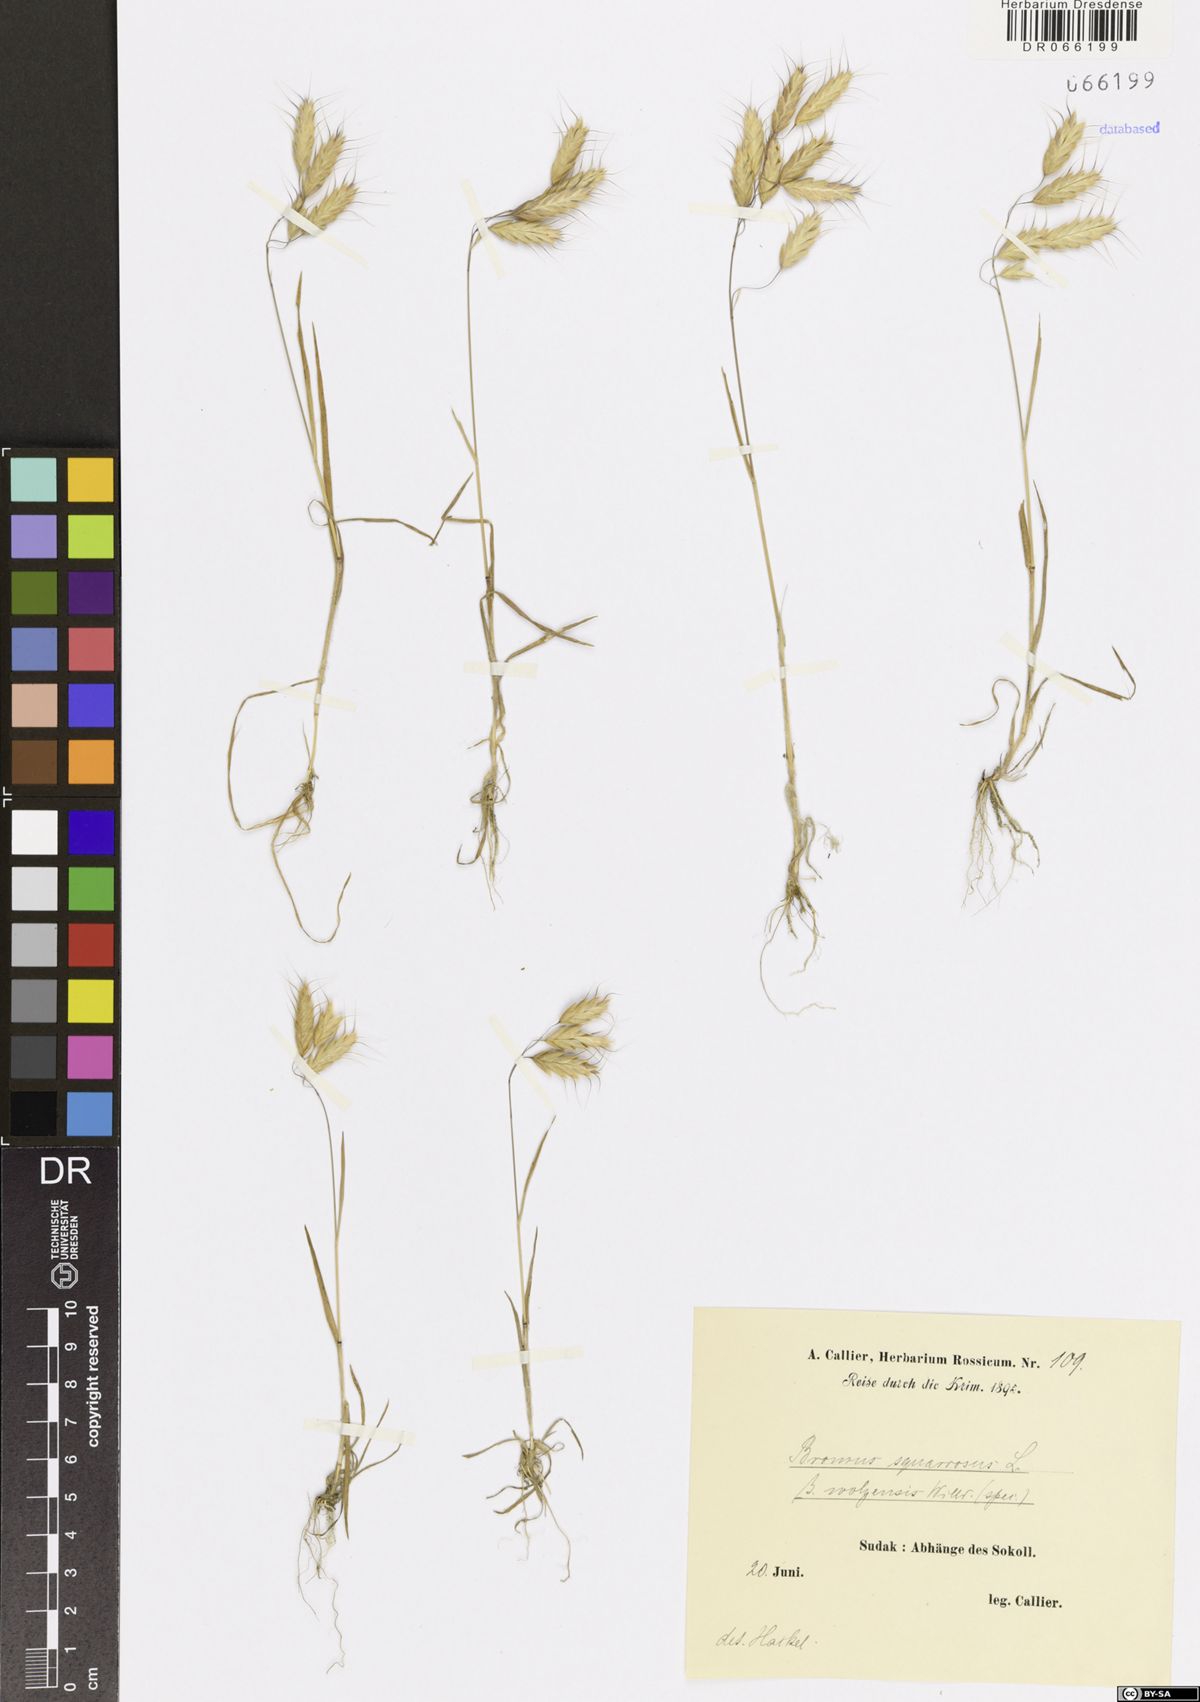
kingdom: Plantae
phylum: Tracheophyta
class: Liliopsida
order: Poales
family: Poaceae
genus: Bromus
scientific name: Bromus squarrosus
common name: Corn brome
